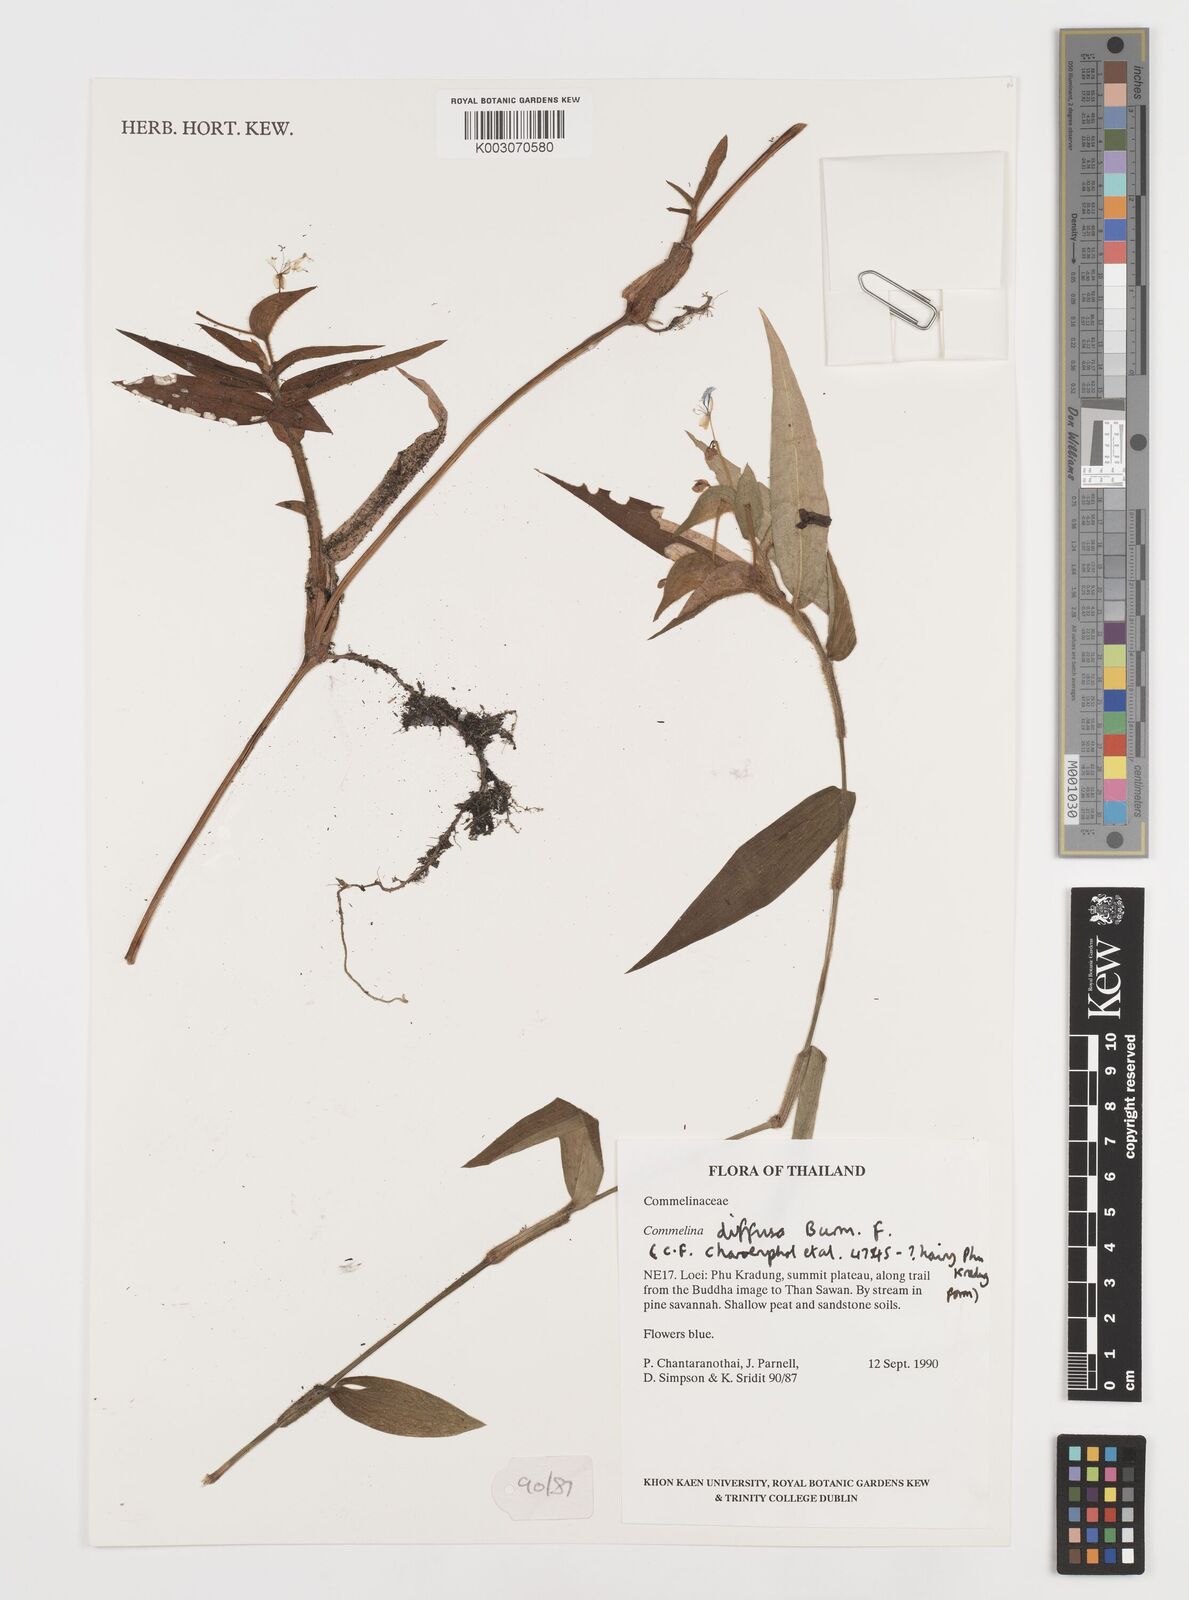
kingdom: Plantae
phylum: Tracheophyta
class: Liliopsida
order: Commelinales
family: Commelinaceae
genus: Commelina
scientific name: Commelina clavata
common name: Willow leaved dayflower
